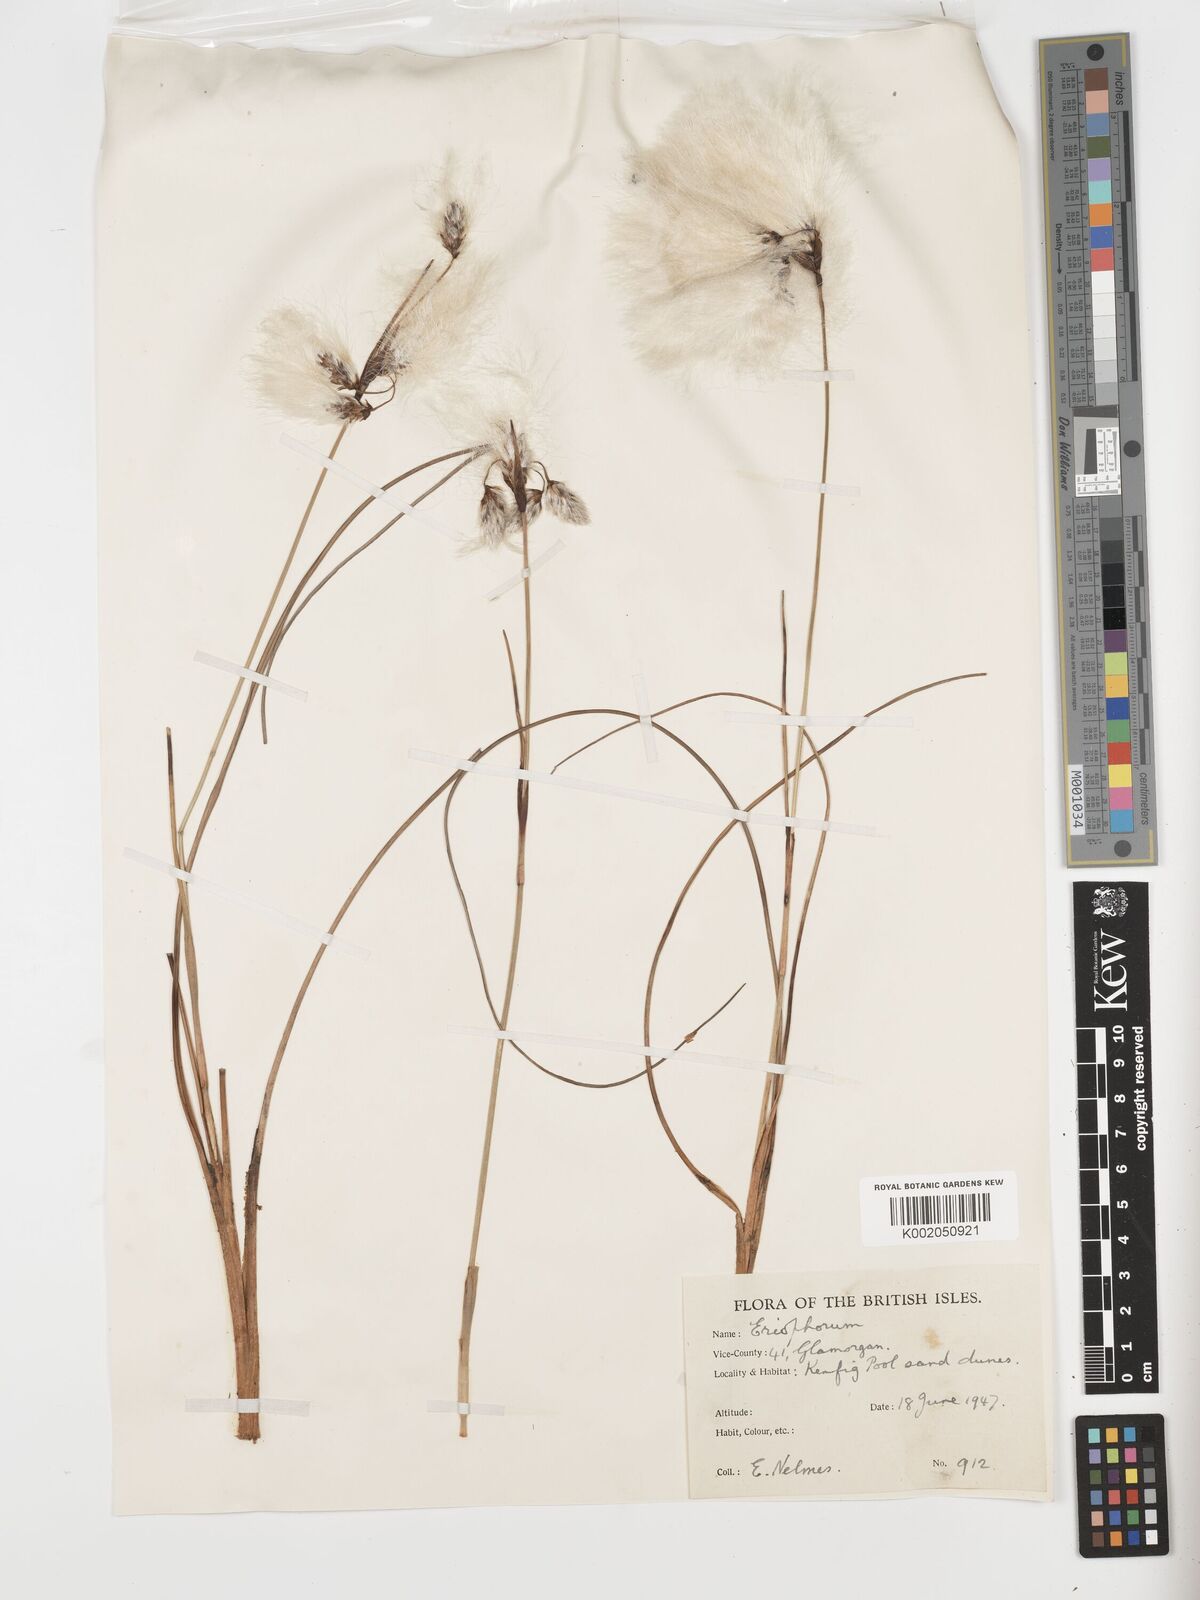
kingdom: Plantae
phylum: Tracheophyta
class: Liliopsida
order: Poales
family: Cyperaceae
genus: Eriophorum
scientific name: Eriophorum angustifolium
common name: Common cottongrass
